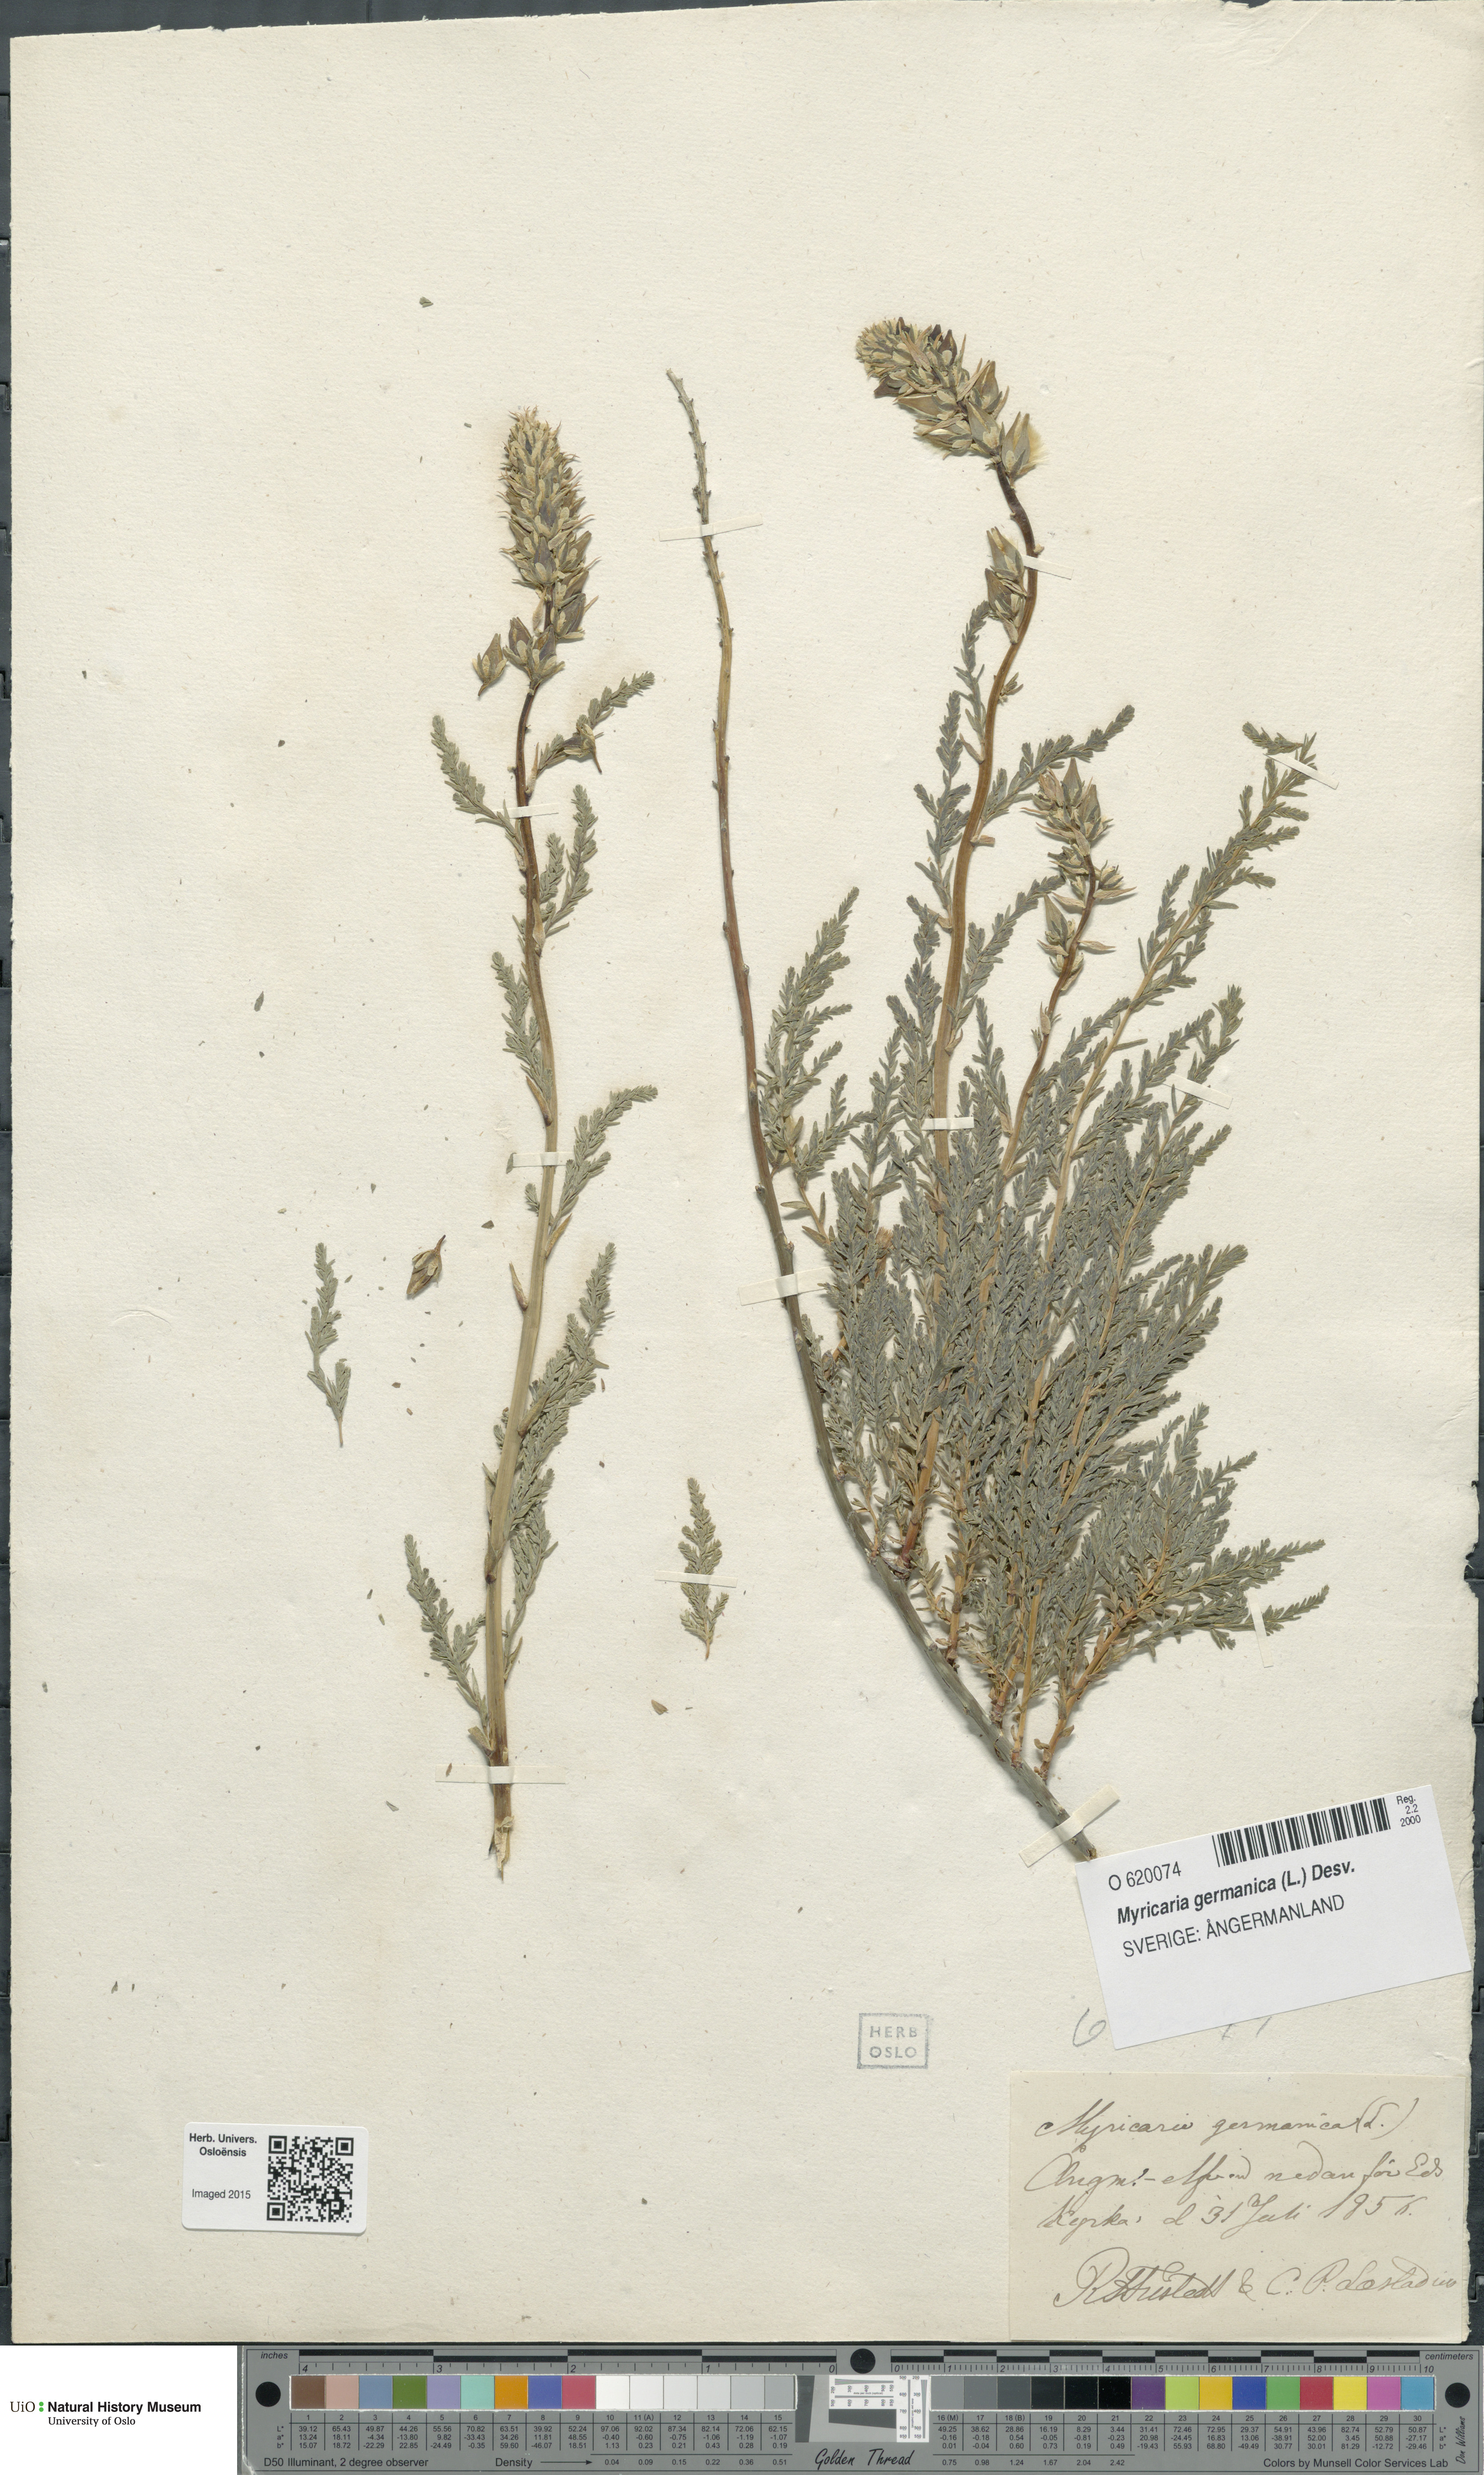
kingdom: Plantae
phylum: Tracheophyta
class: Magnoliopsida
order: Caryophyllales
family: Tamaricaceae
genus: Myricaria
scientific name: Myricaria germanica
